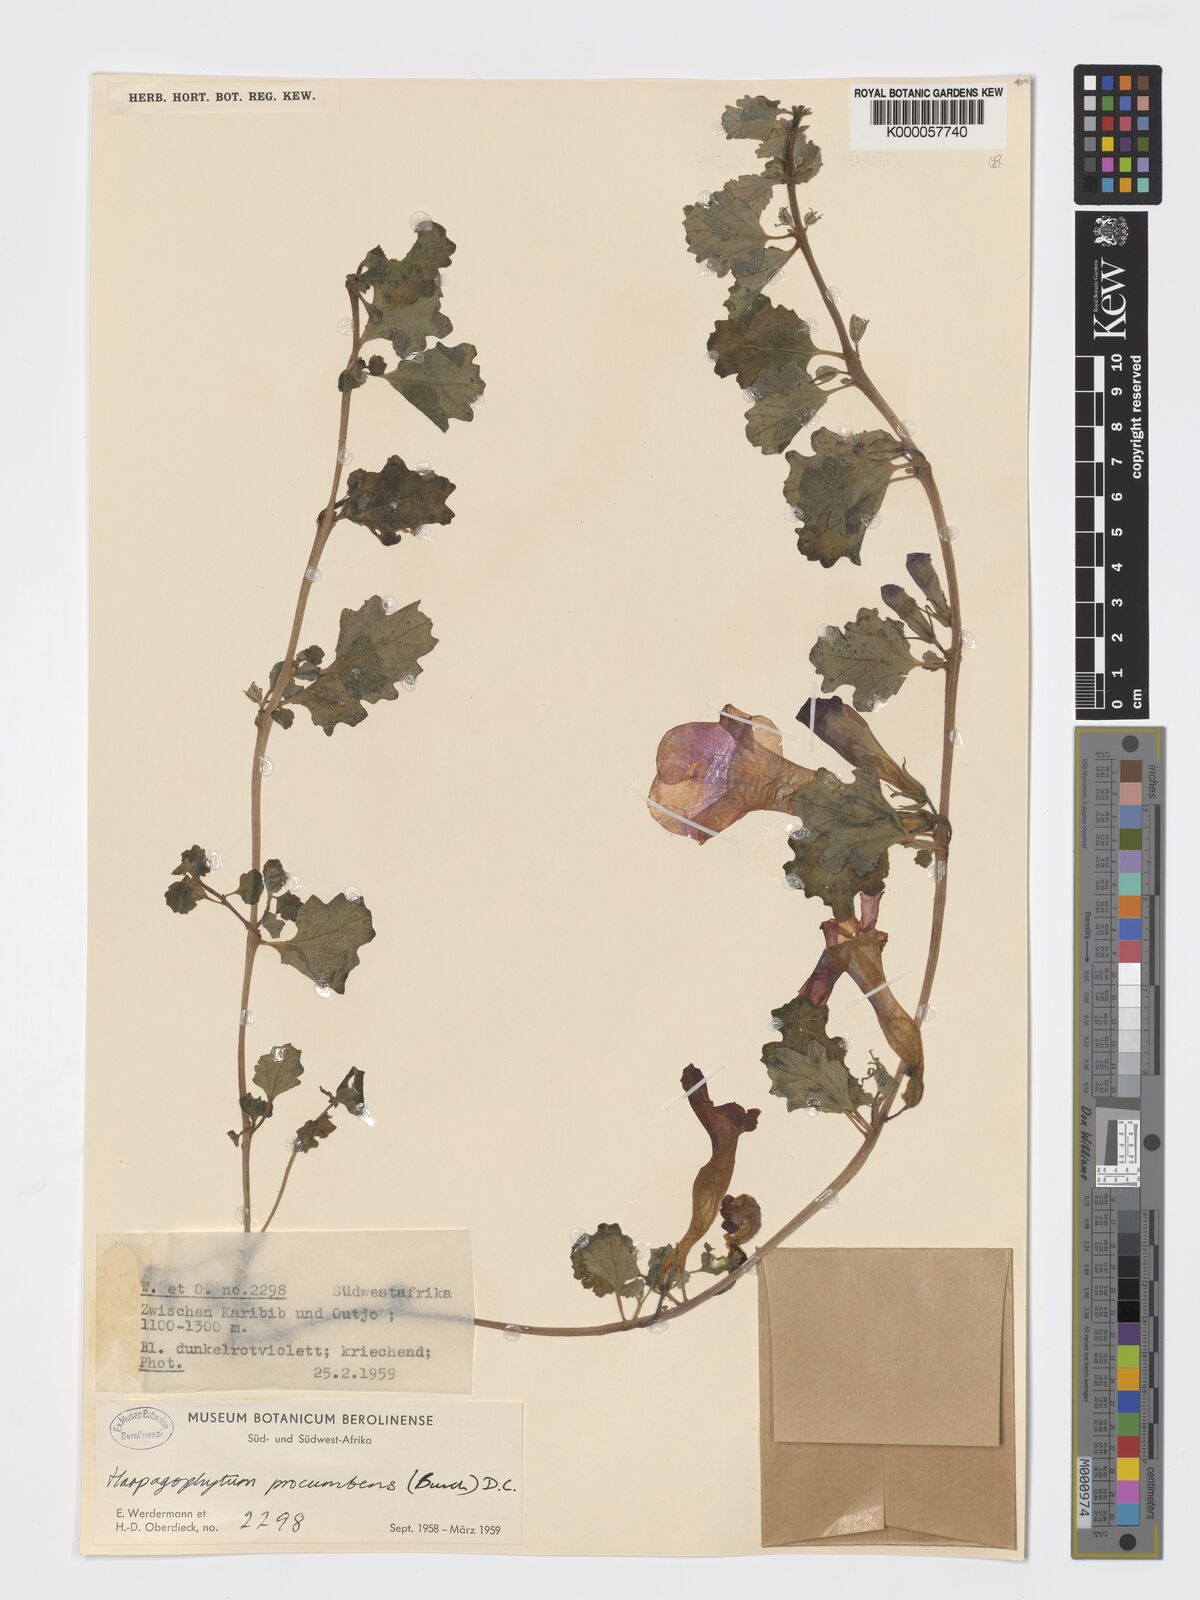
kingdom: Plantae
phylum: Tracheophyta
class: Magnoliopsida
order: Lamiales
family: Pedaliaceae
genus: Harpagophytum
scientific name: Harpagophytum procumbens
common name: Grappleplant
